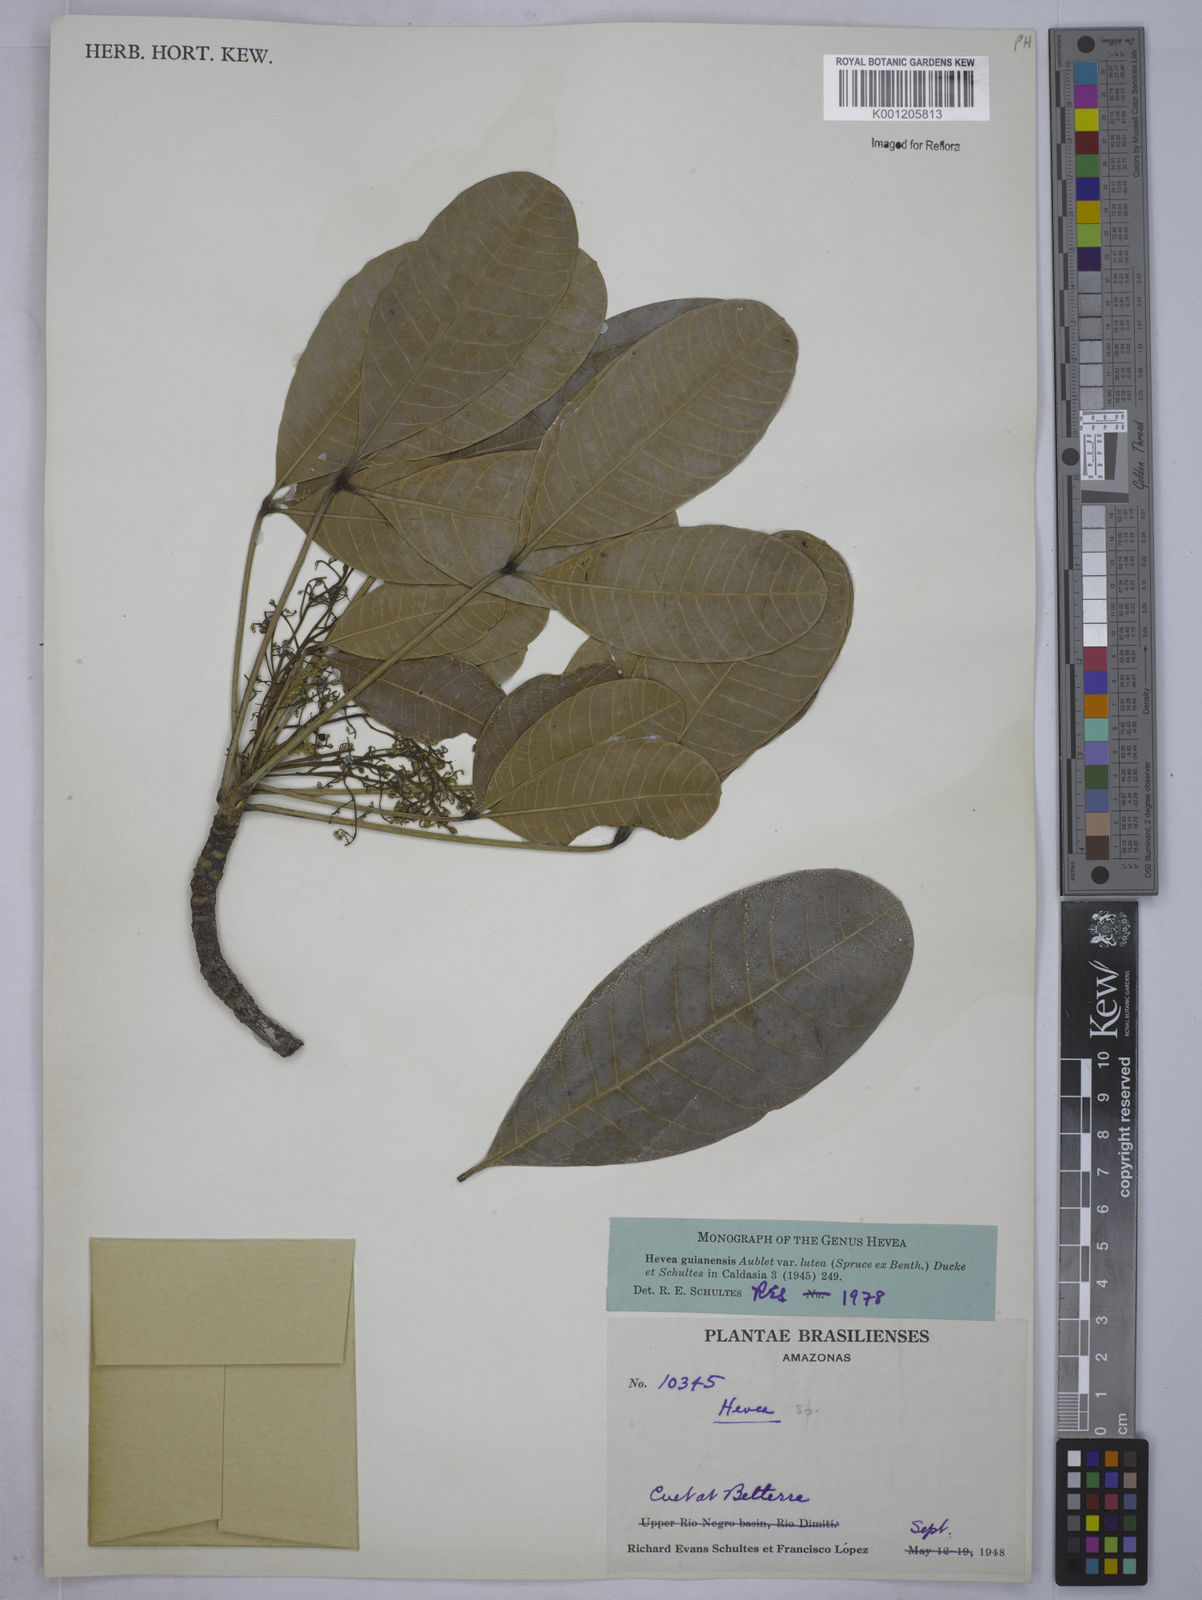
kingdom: Plantae
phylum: Tracheophyta
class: Magnoliopsida
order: Malpighiales
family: Euphorbiaceae
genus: Hevea
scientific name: Hevea guianensis
